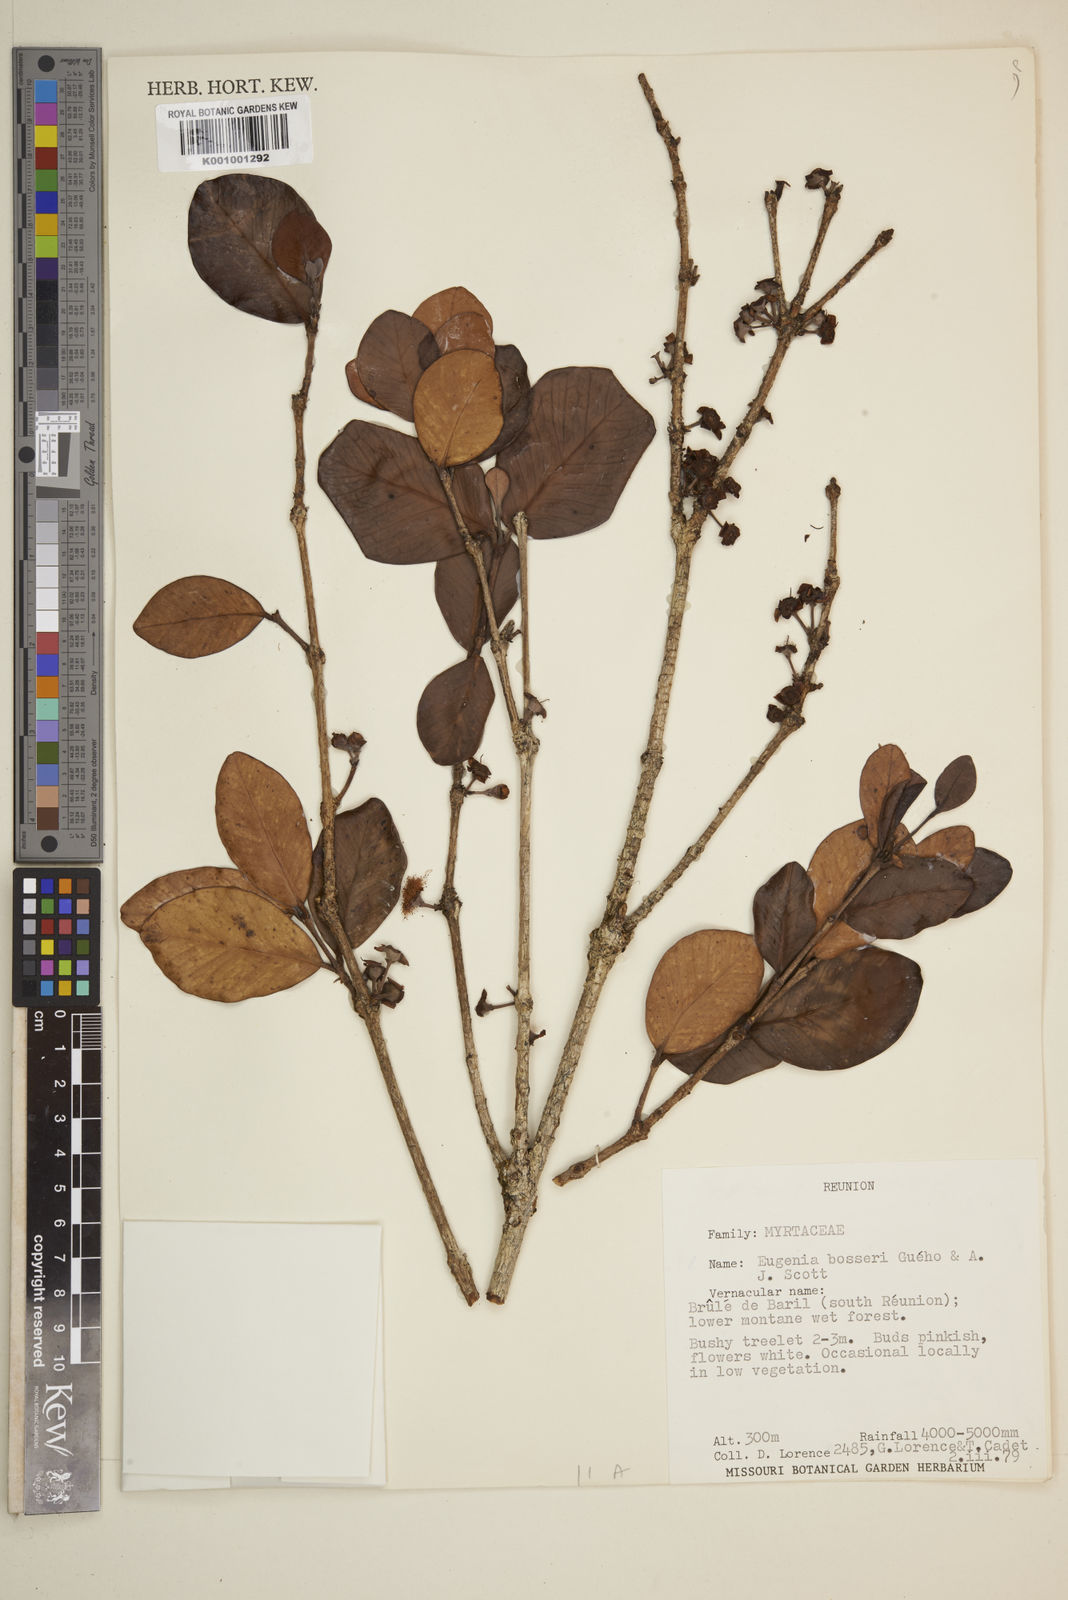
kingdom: Plantae
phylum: Tracheophyta
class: Magnoliopsida
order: Myrtales
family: Myrtaceae
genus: Eugenia
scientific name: Eugenia
